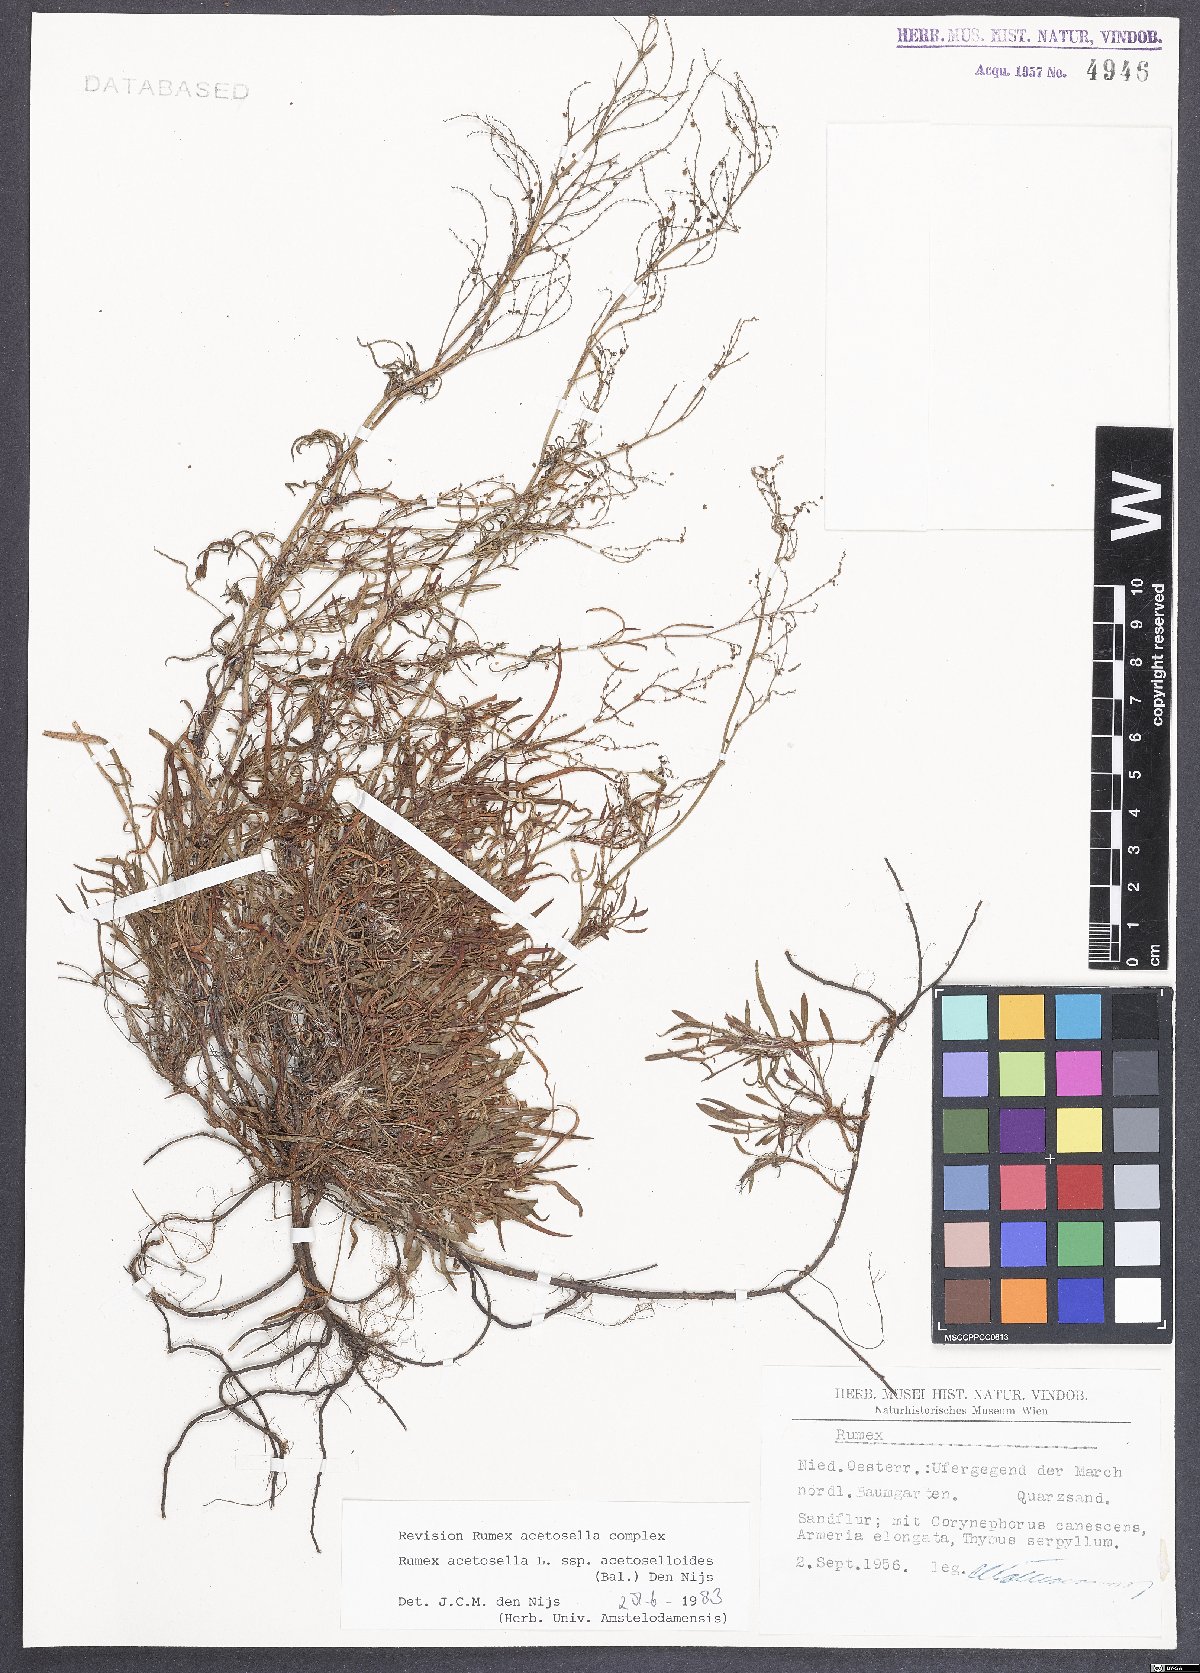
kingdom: Plantae
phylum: Tracheophyta
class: Magnoliopsida
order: Caryophyllales
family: Polygonaceae
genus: Rumex
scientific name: Rumex acetosella
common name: Common sheep sorrel
